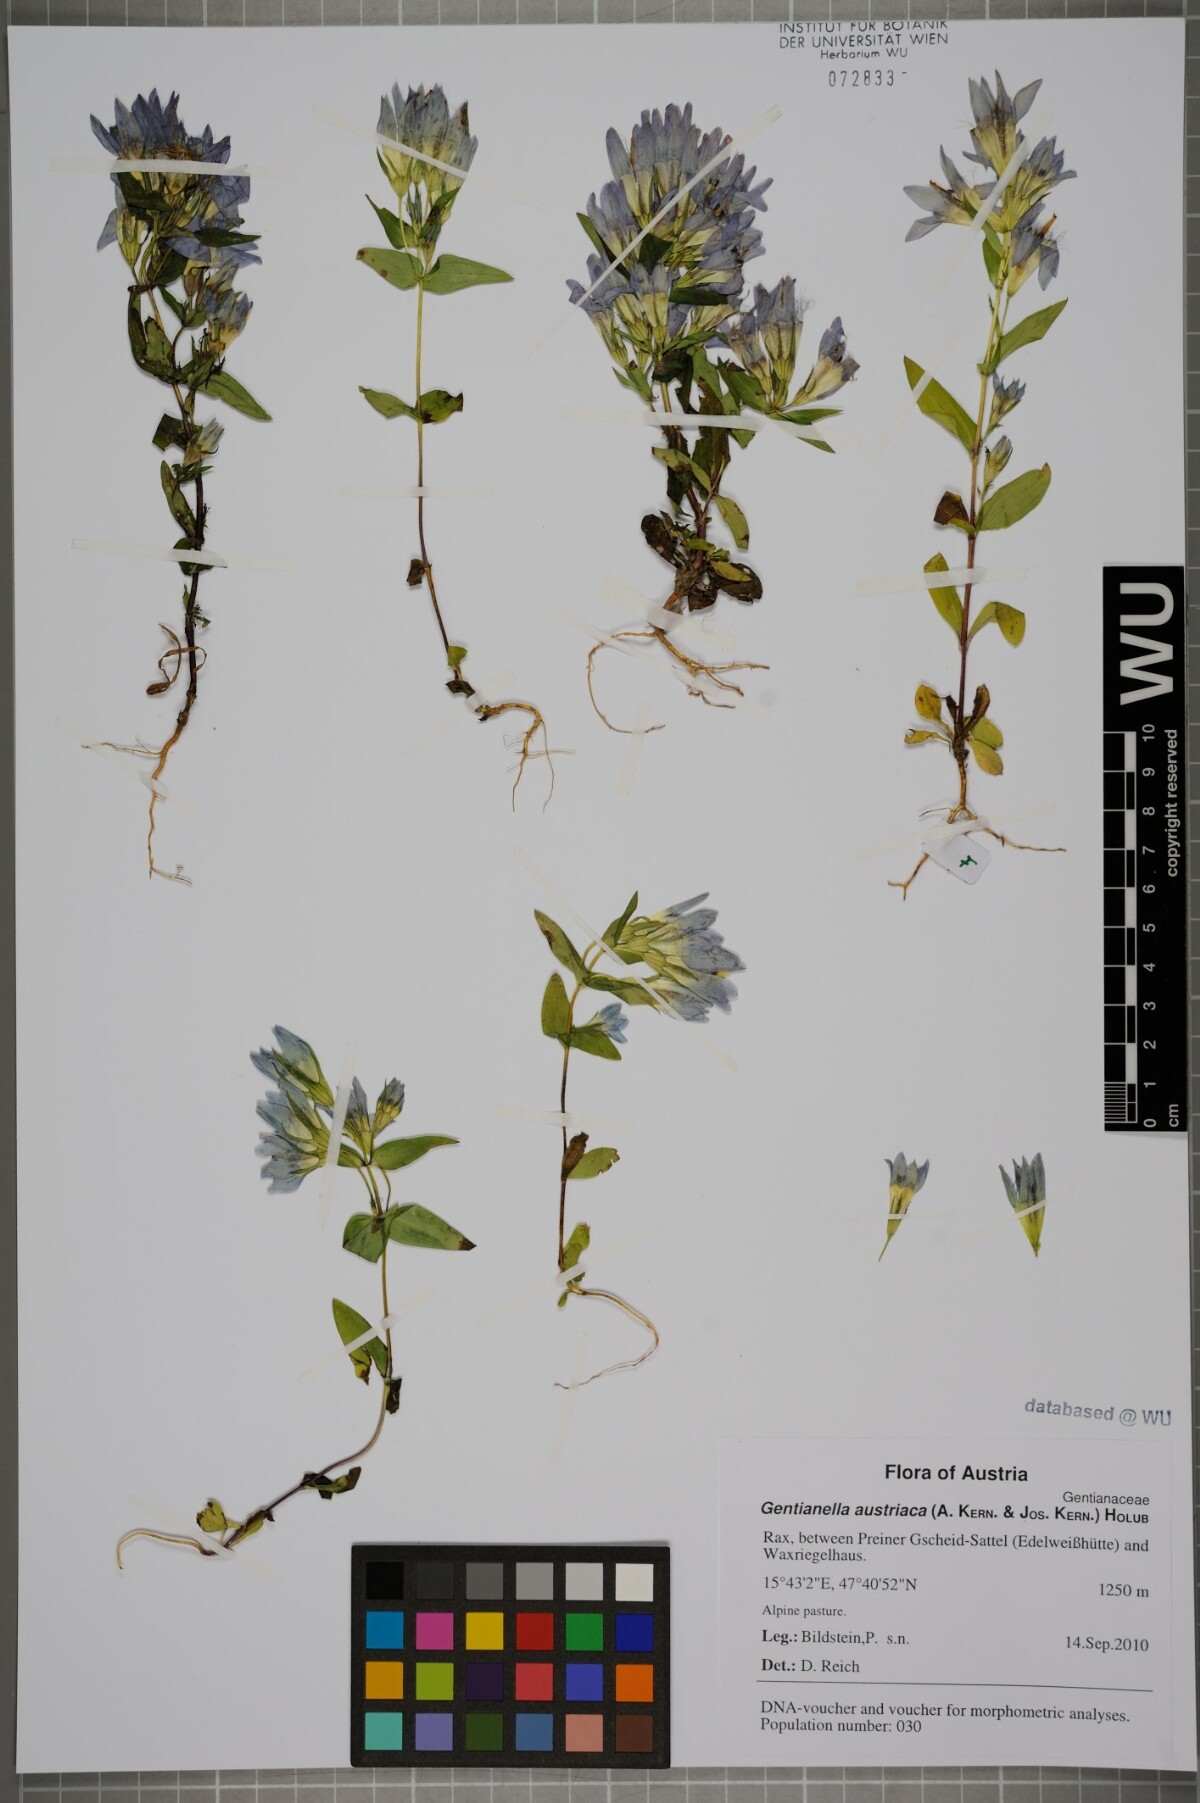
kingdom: Plantae
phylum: Tracheophyta
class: Magnoliopsida
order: Gentianales
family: Gentianaceae
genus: Gentianella
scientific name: Gentianella austriaca
